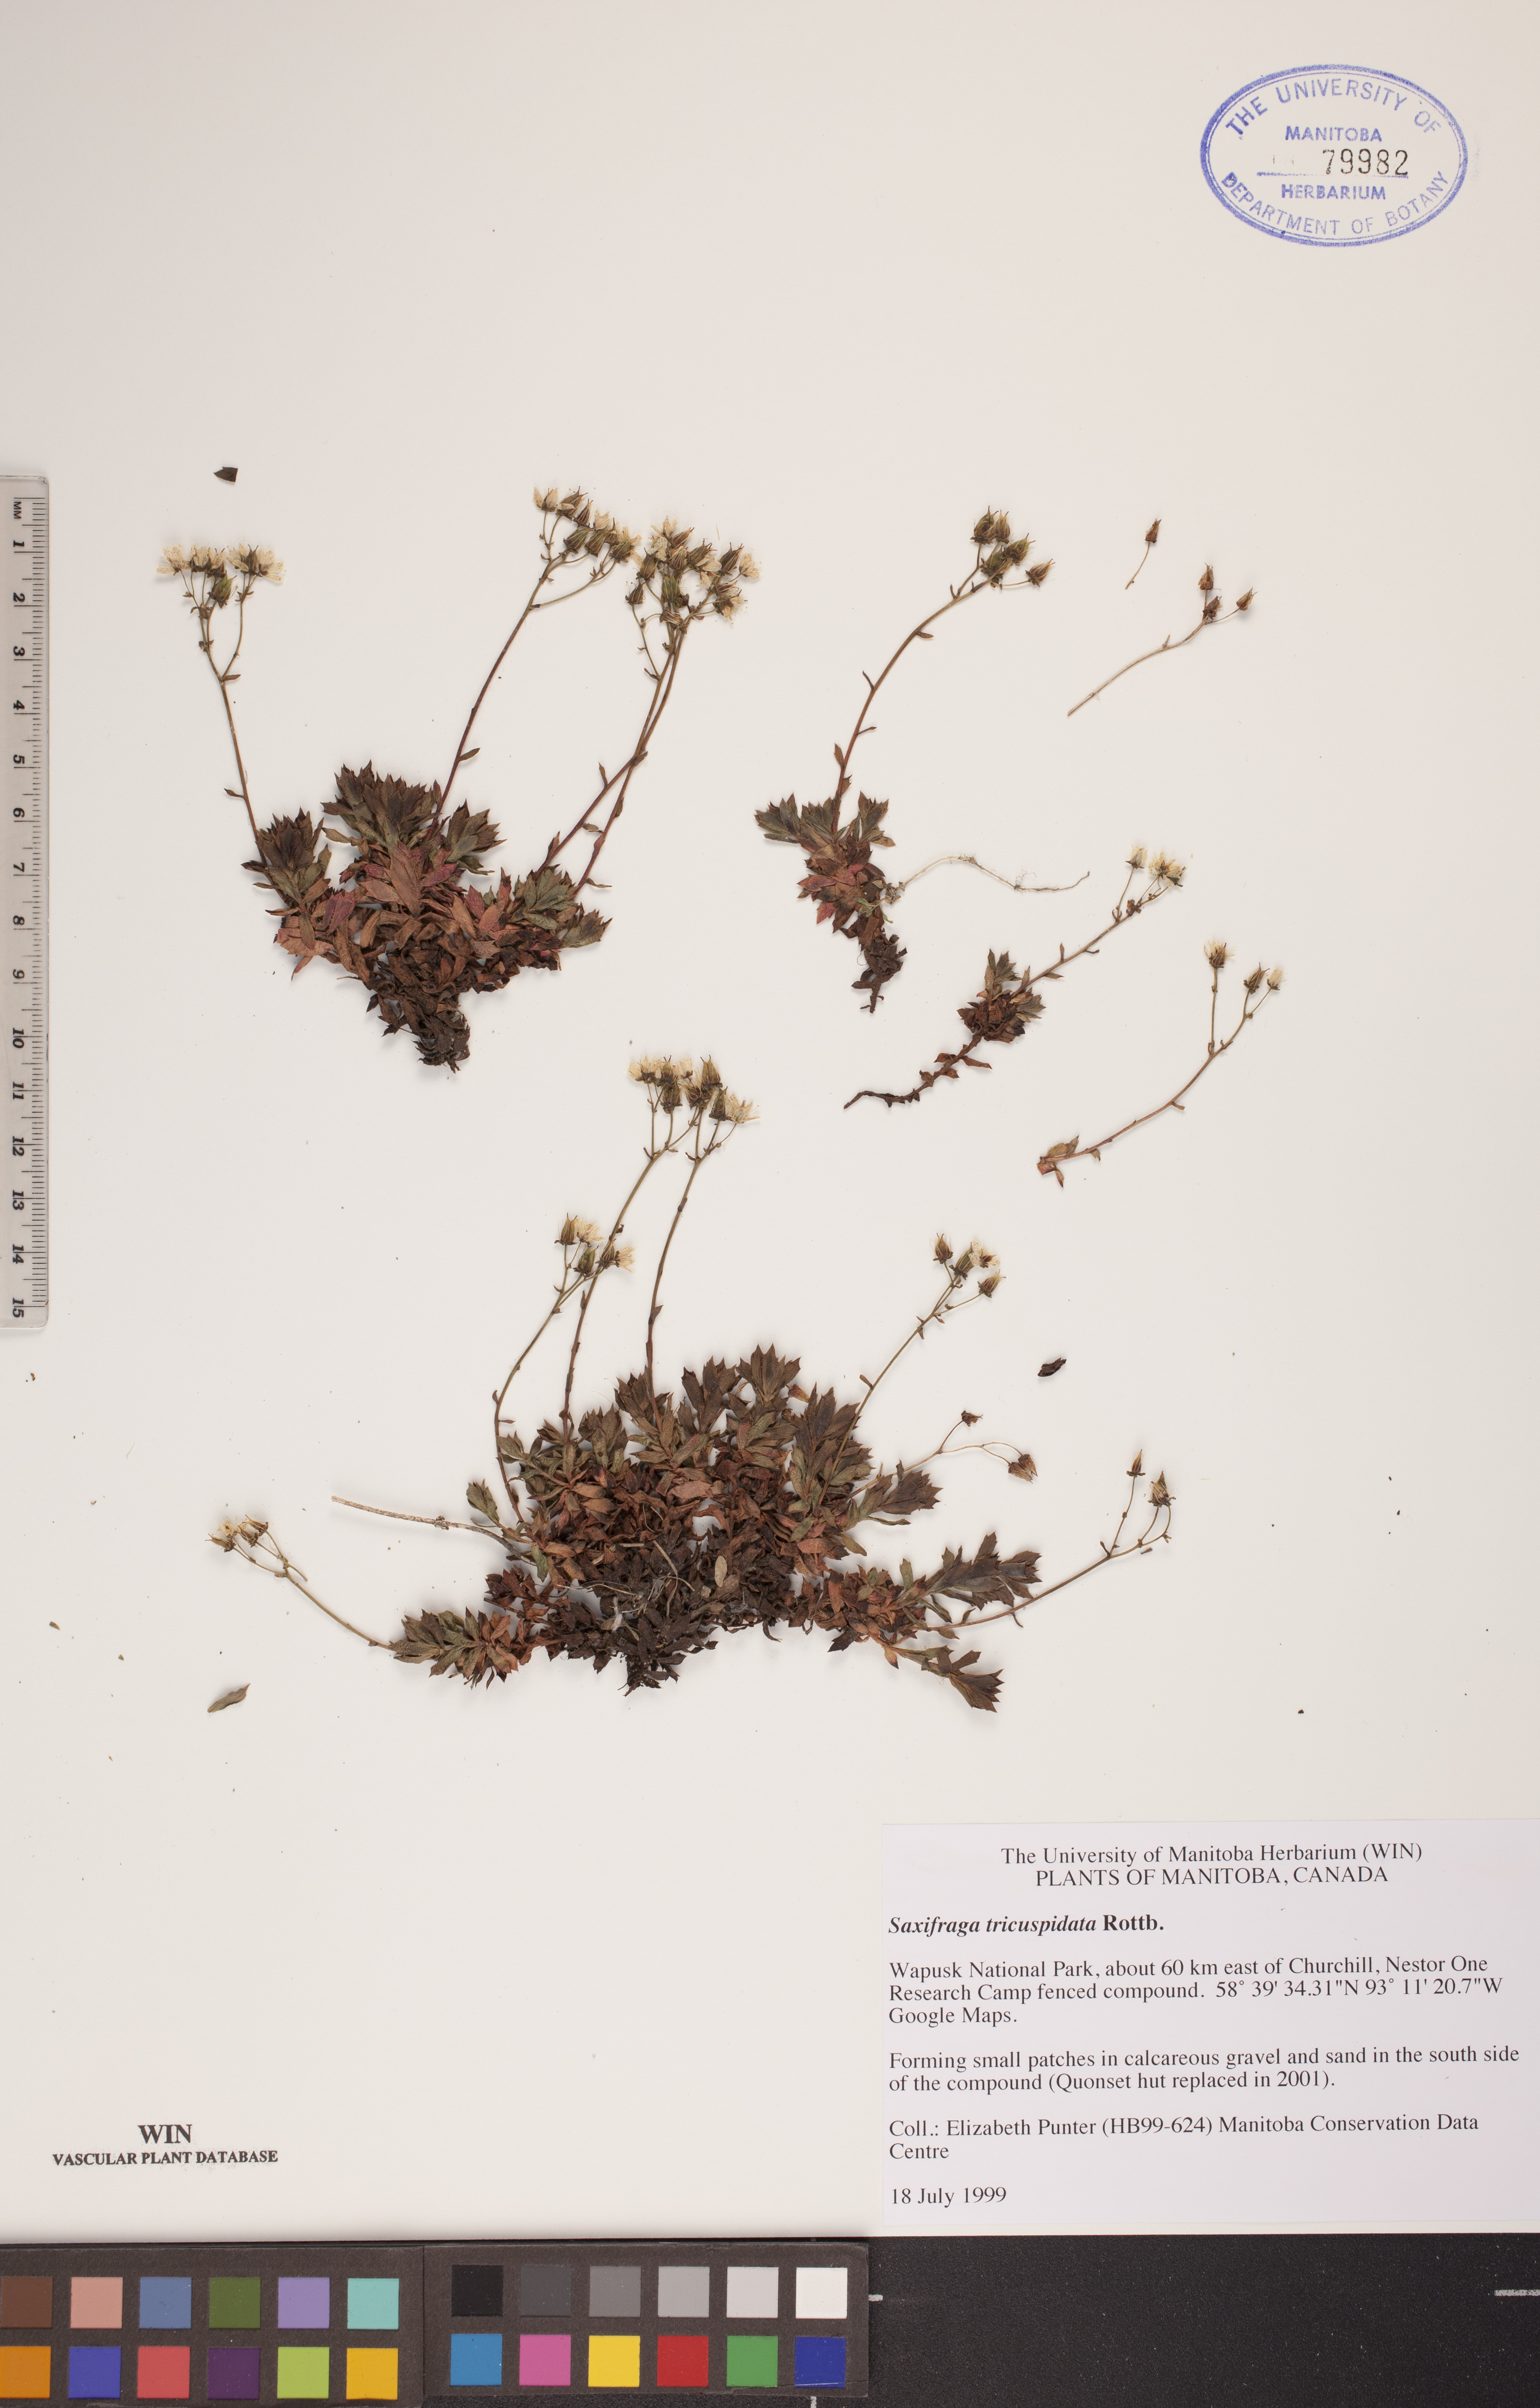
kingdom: Plantae
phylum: Tracheophyta
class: Magnoliopsida
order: Saxifragales
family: Saxifragaceae
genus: Saxifraga
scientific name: Saxifraga tricuspidata
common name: Prickly saxifrage
